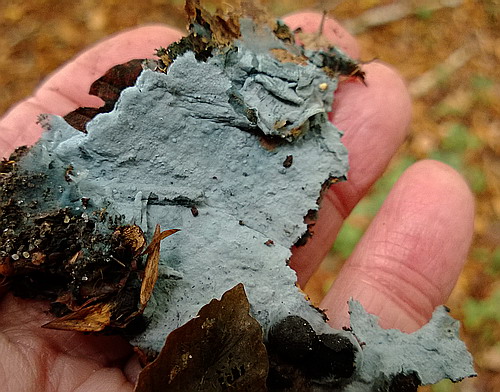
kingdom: Fungi
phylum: Basidiomycota
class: Agaricomycetes
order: Atheliales
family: Atheliaceae
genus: Byssocorticium
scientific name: Byssocorticium atrovirens
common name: blå førnehinde
